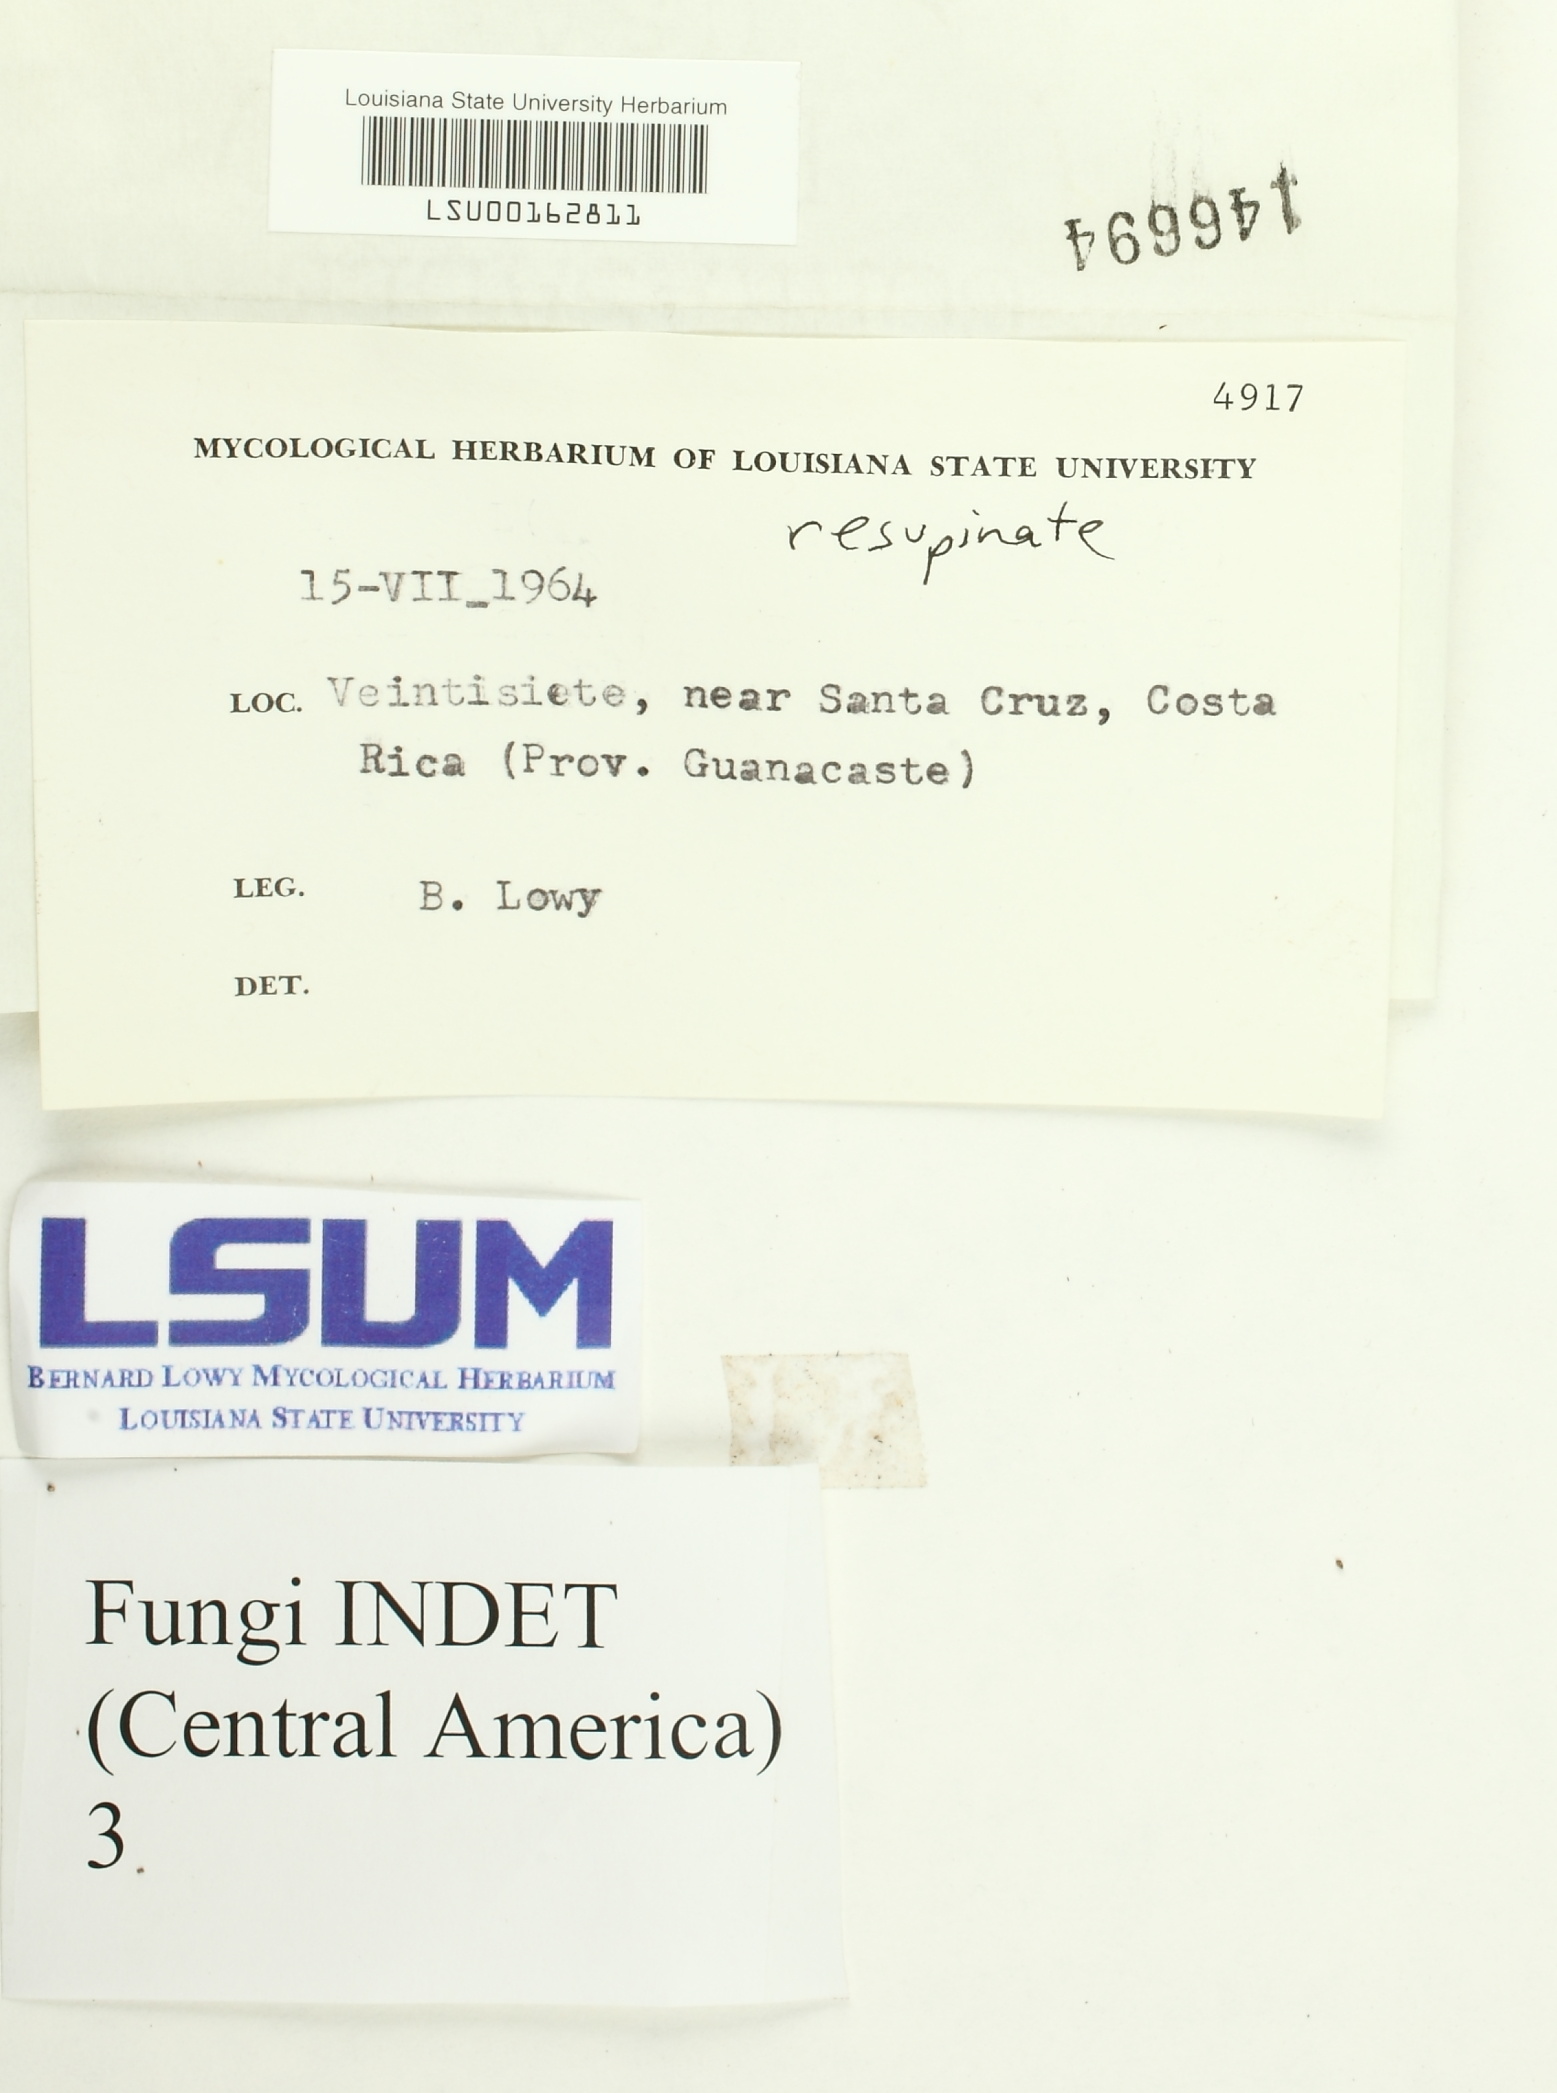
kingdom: Fungi
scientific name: Fungi
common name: Fungi
